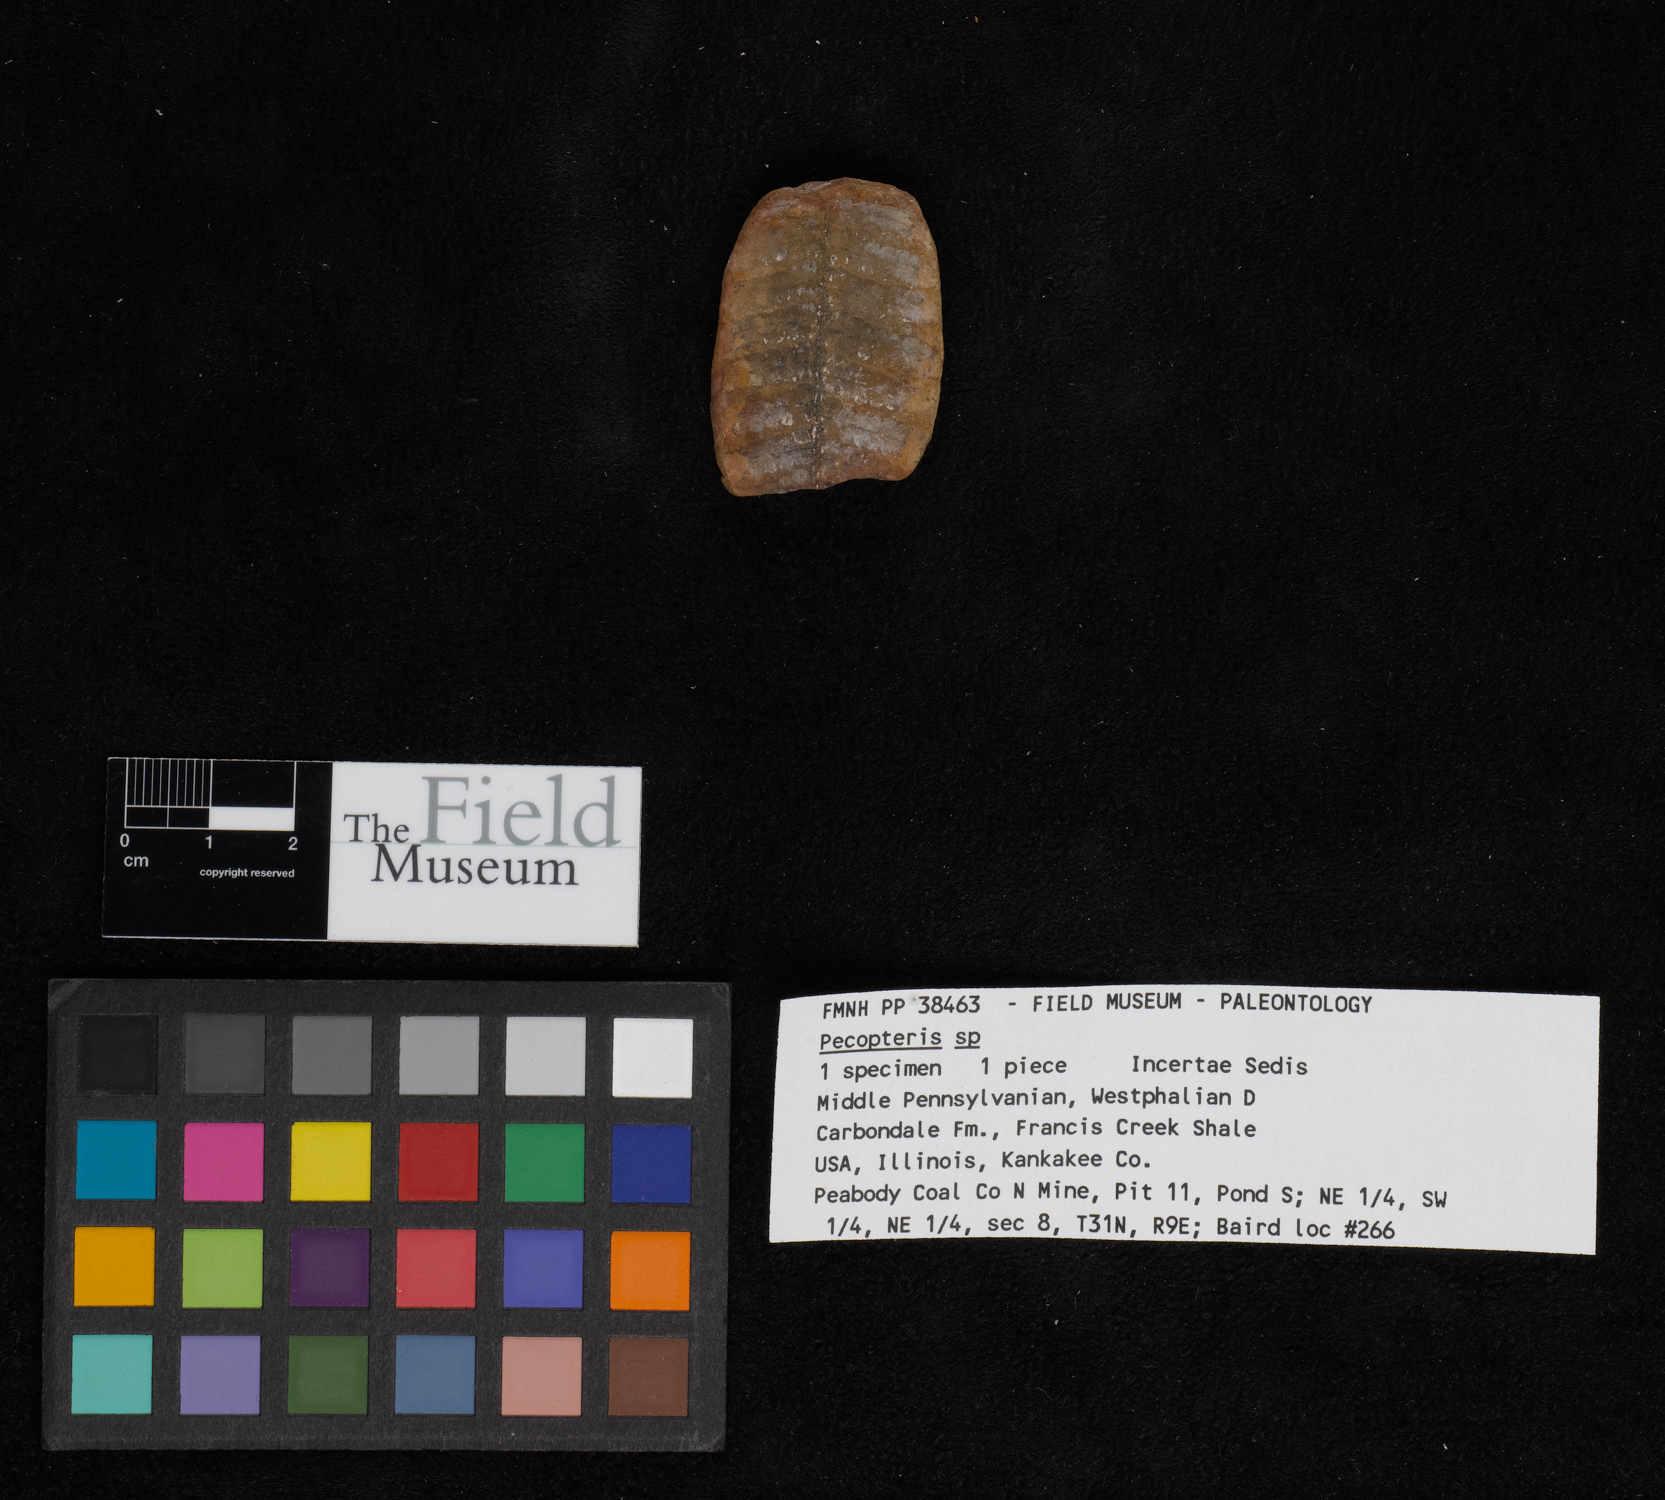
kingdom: Plantae
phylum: Tracheophyta
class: Polypodiopsida
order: Marattiales
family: Asterothecaceae
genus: Pecopteris
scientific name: Pecopteris
